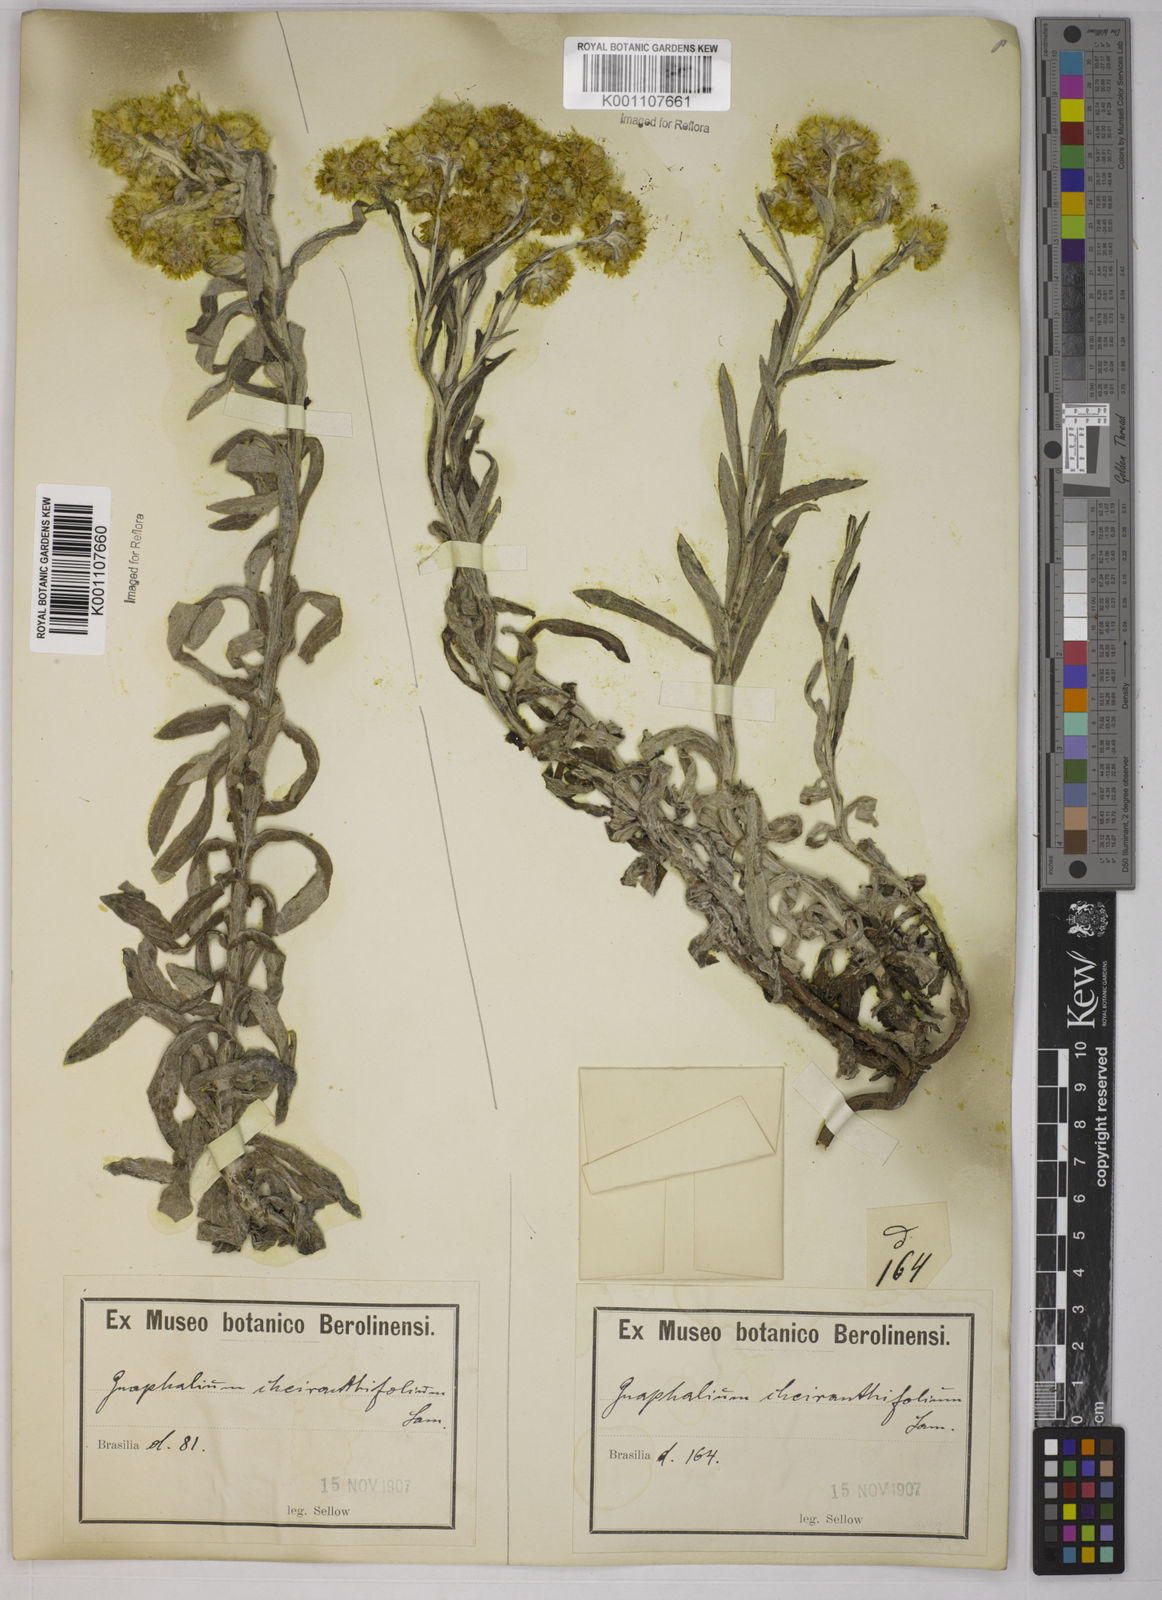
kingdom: Plantae
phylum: Tracheophyta
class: Magnoliopsida
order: Asterales
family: Asteraceae
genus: Pseudognaphalium
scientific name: Pseudognaphalium cheiranthifolium
